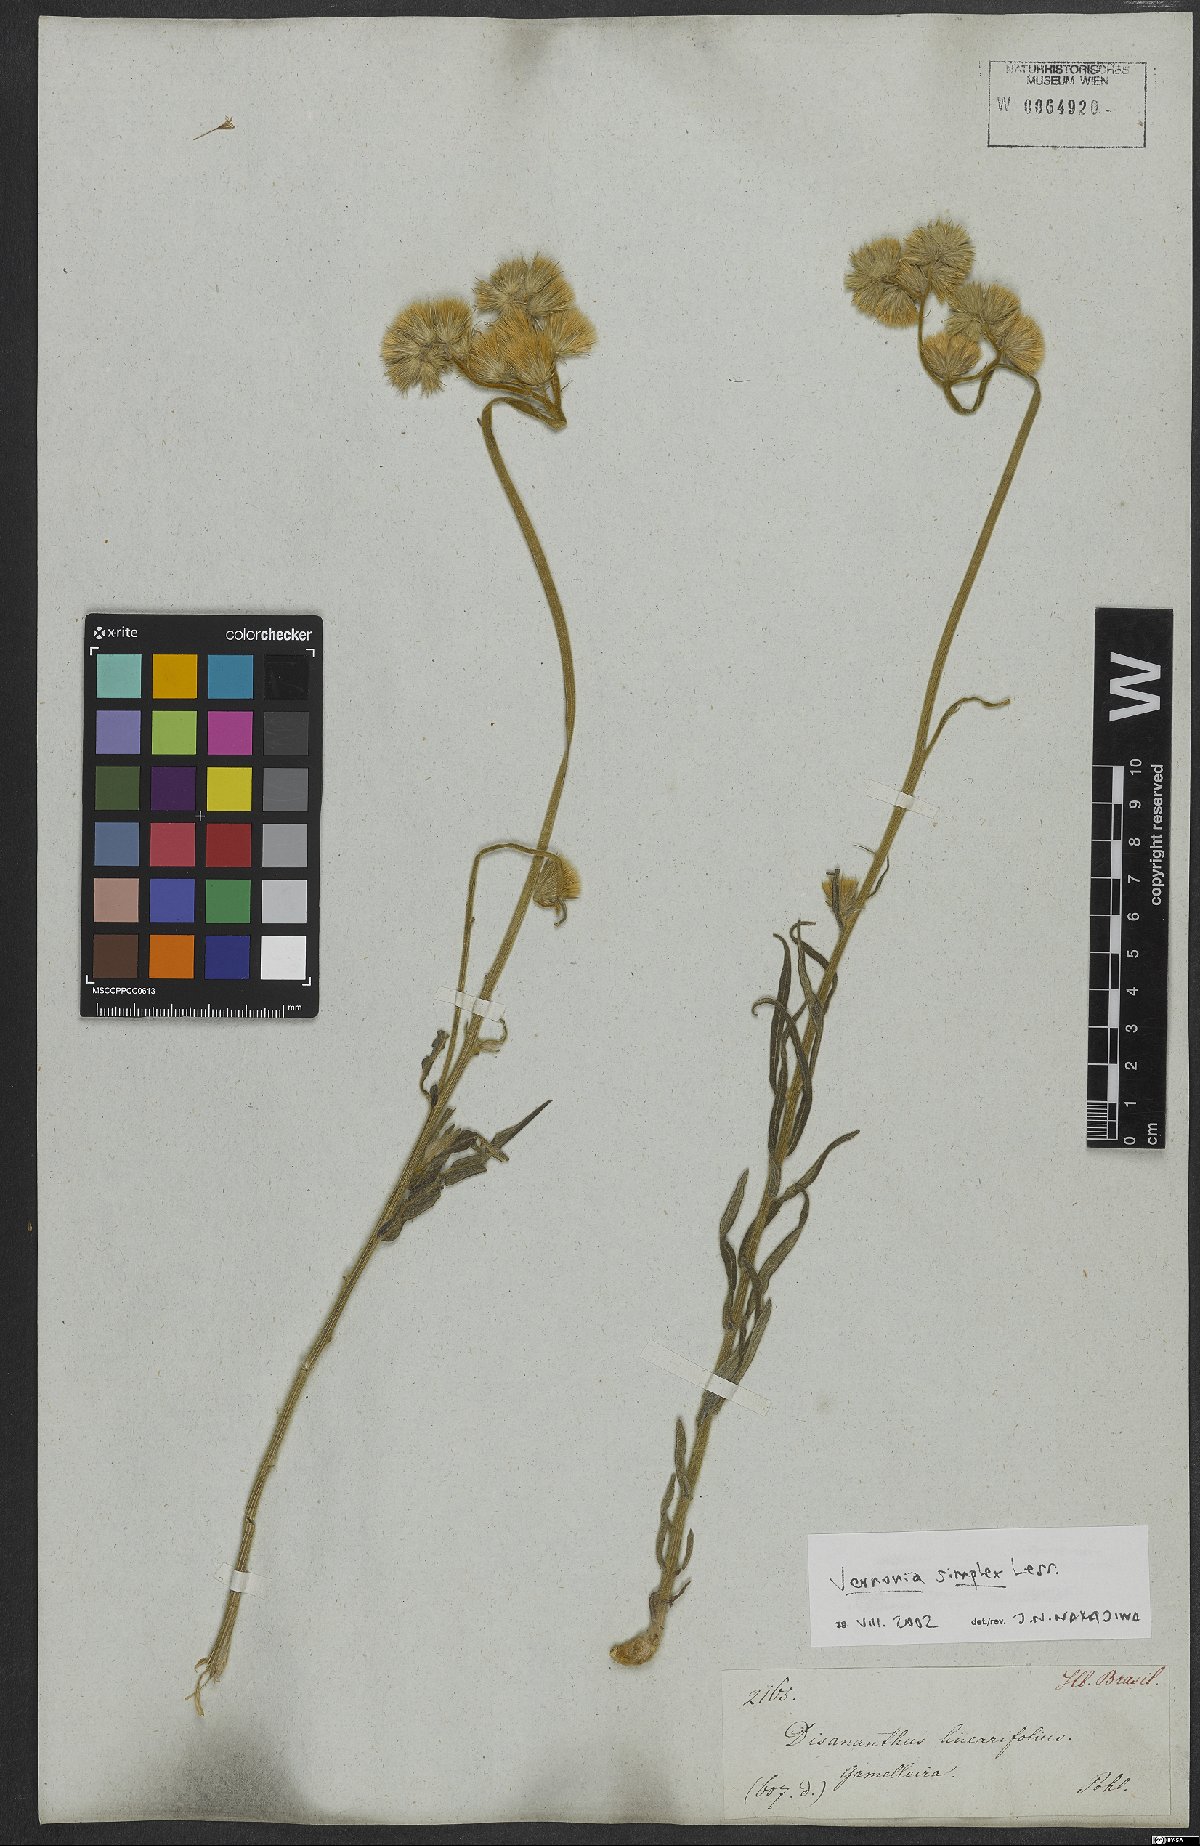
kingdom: Plantae
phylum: Tracheophyta
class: Magnoliopsida
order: Asterales
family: Asteraceae
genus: Chrysolaena
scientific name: Chrysolaena simplex
